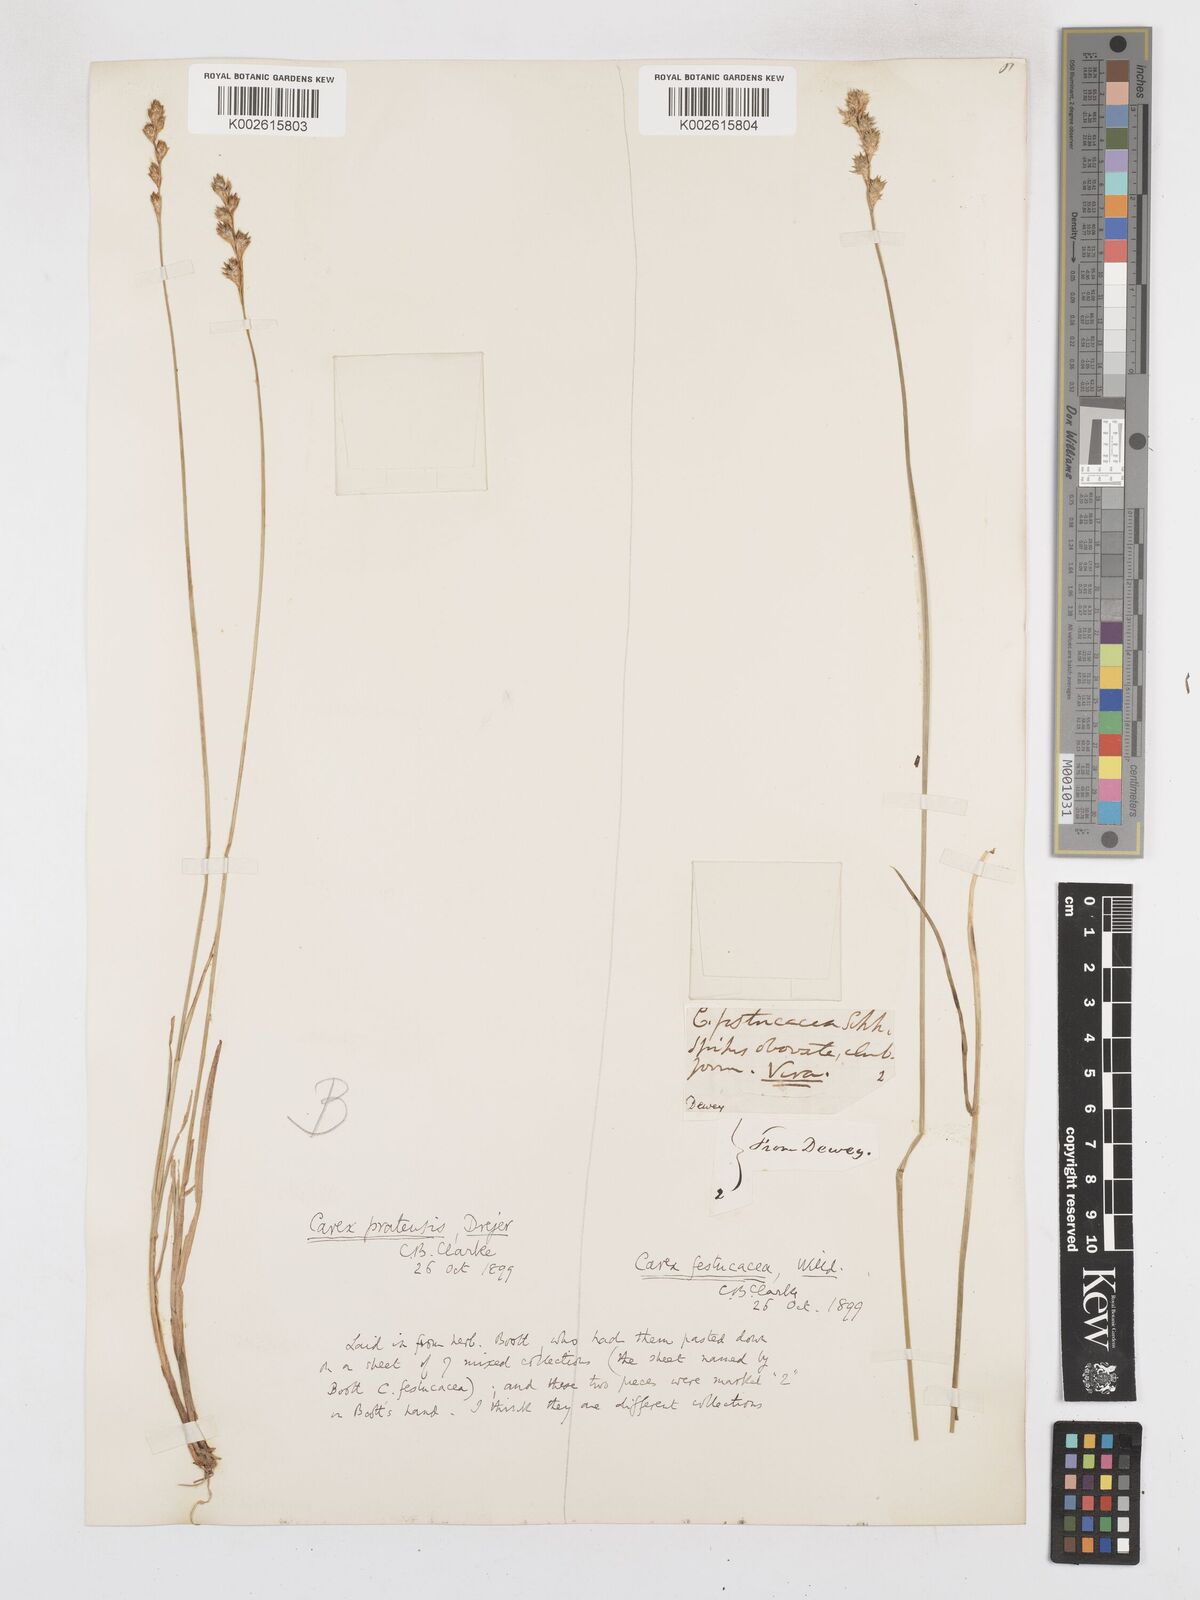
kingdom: Plantae
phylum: Tracheophyta
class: Liliopsida
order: Poales
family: Cyperaceae
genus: Carex
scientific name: Carex praticola
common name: Large-fruited oval sedge
